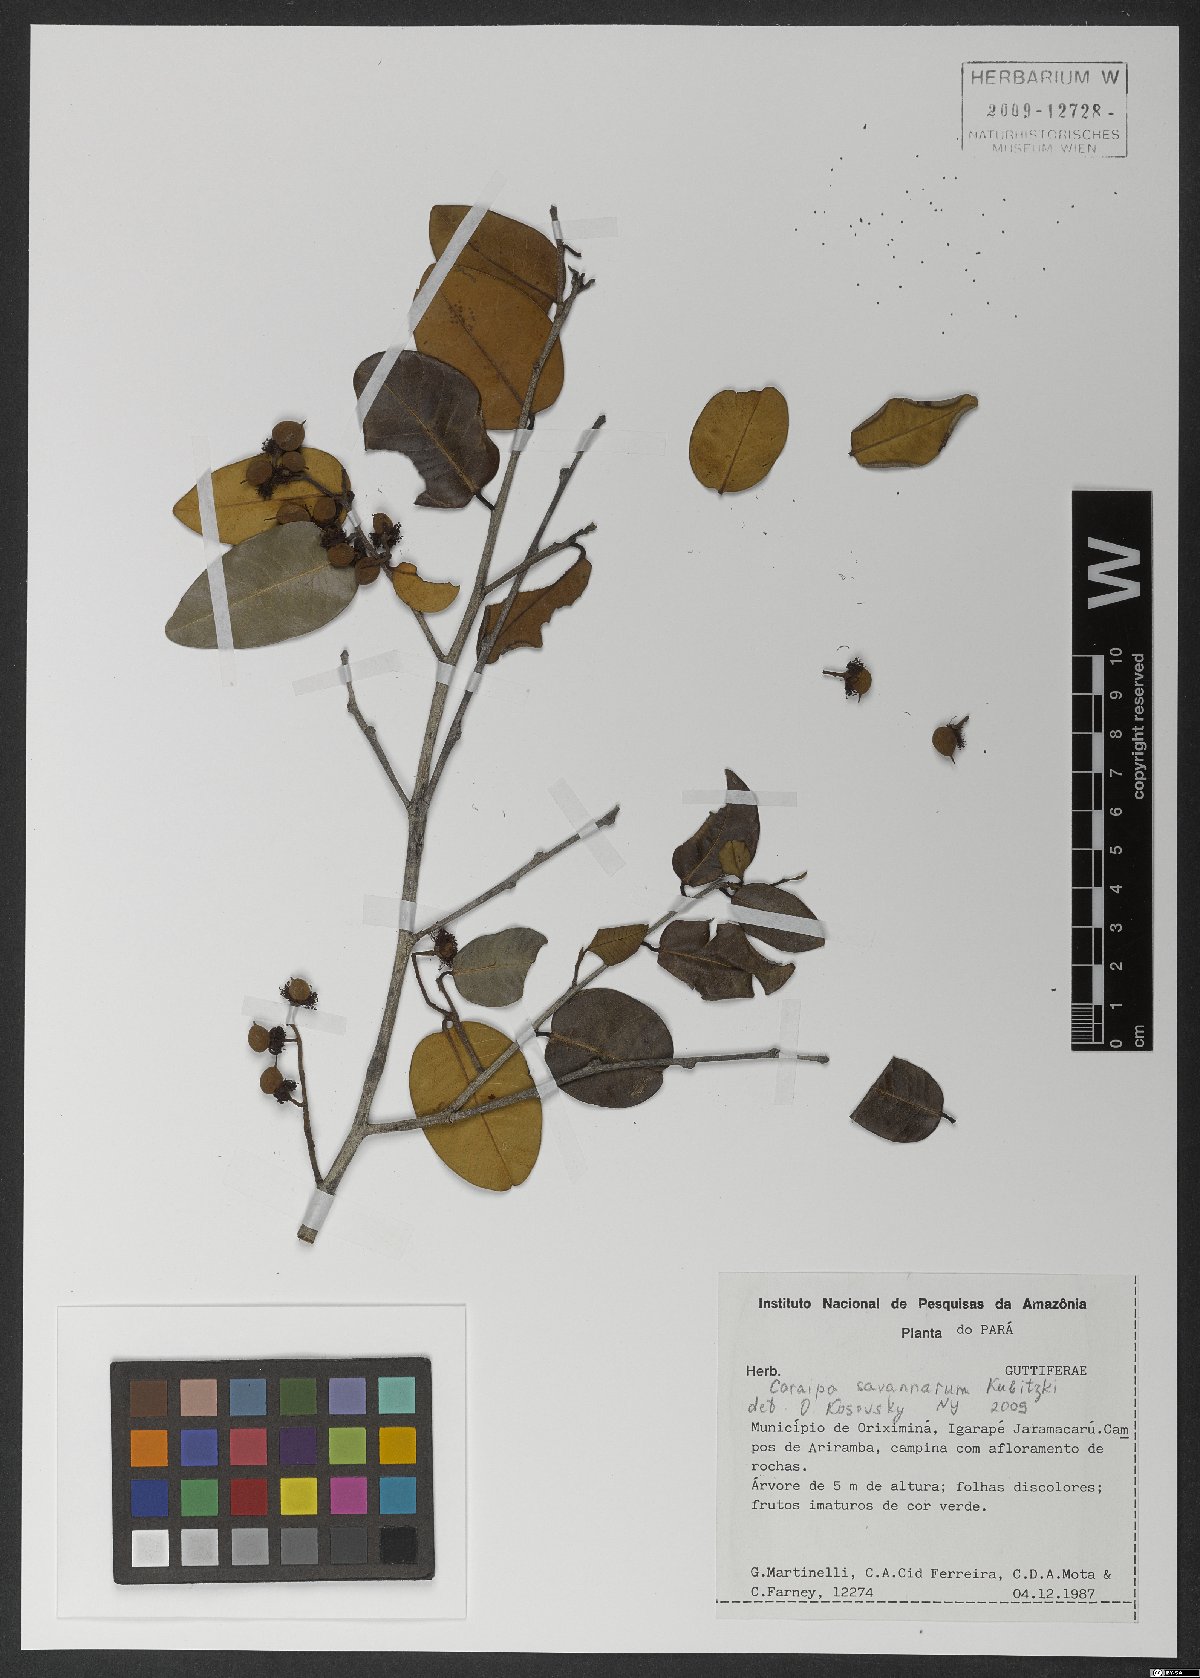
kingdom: Plantae
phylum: Tracheophyta
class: Magnoliopsida
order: Malpighiales
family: Calophyllaceae
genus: Caraipa
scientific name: Caraipa savannarum
